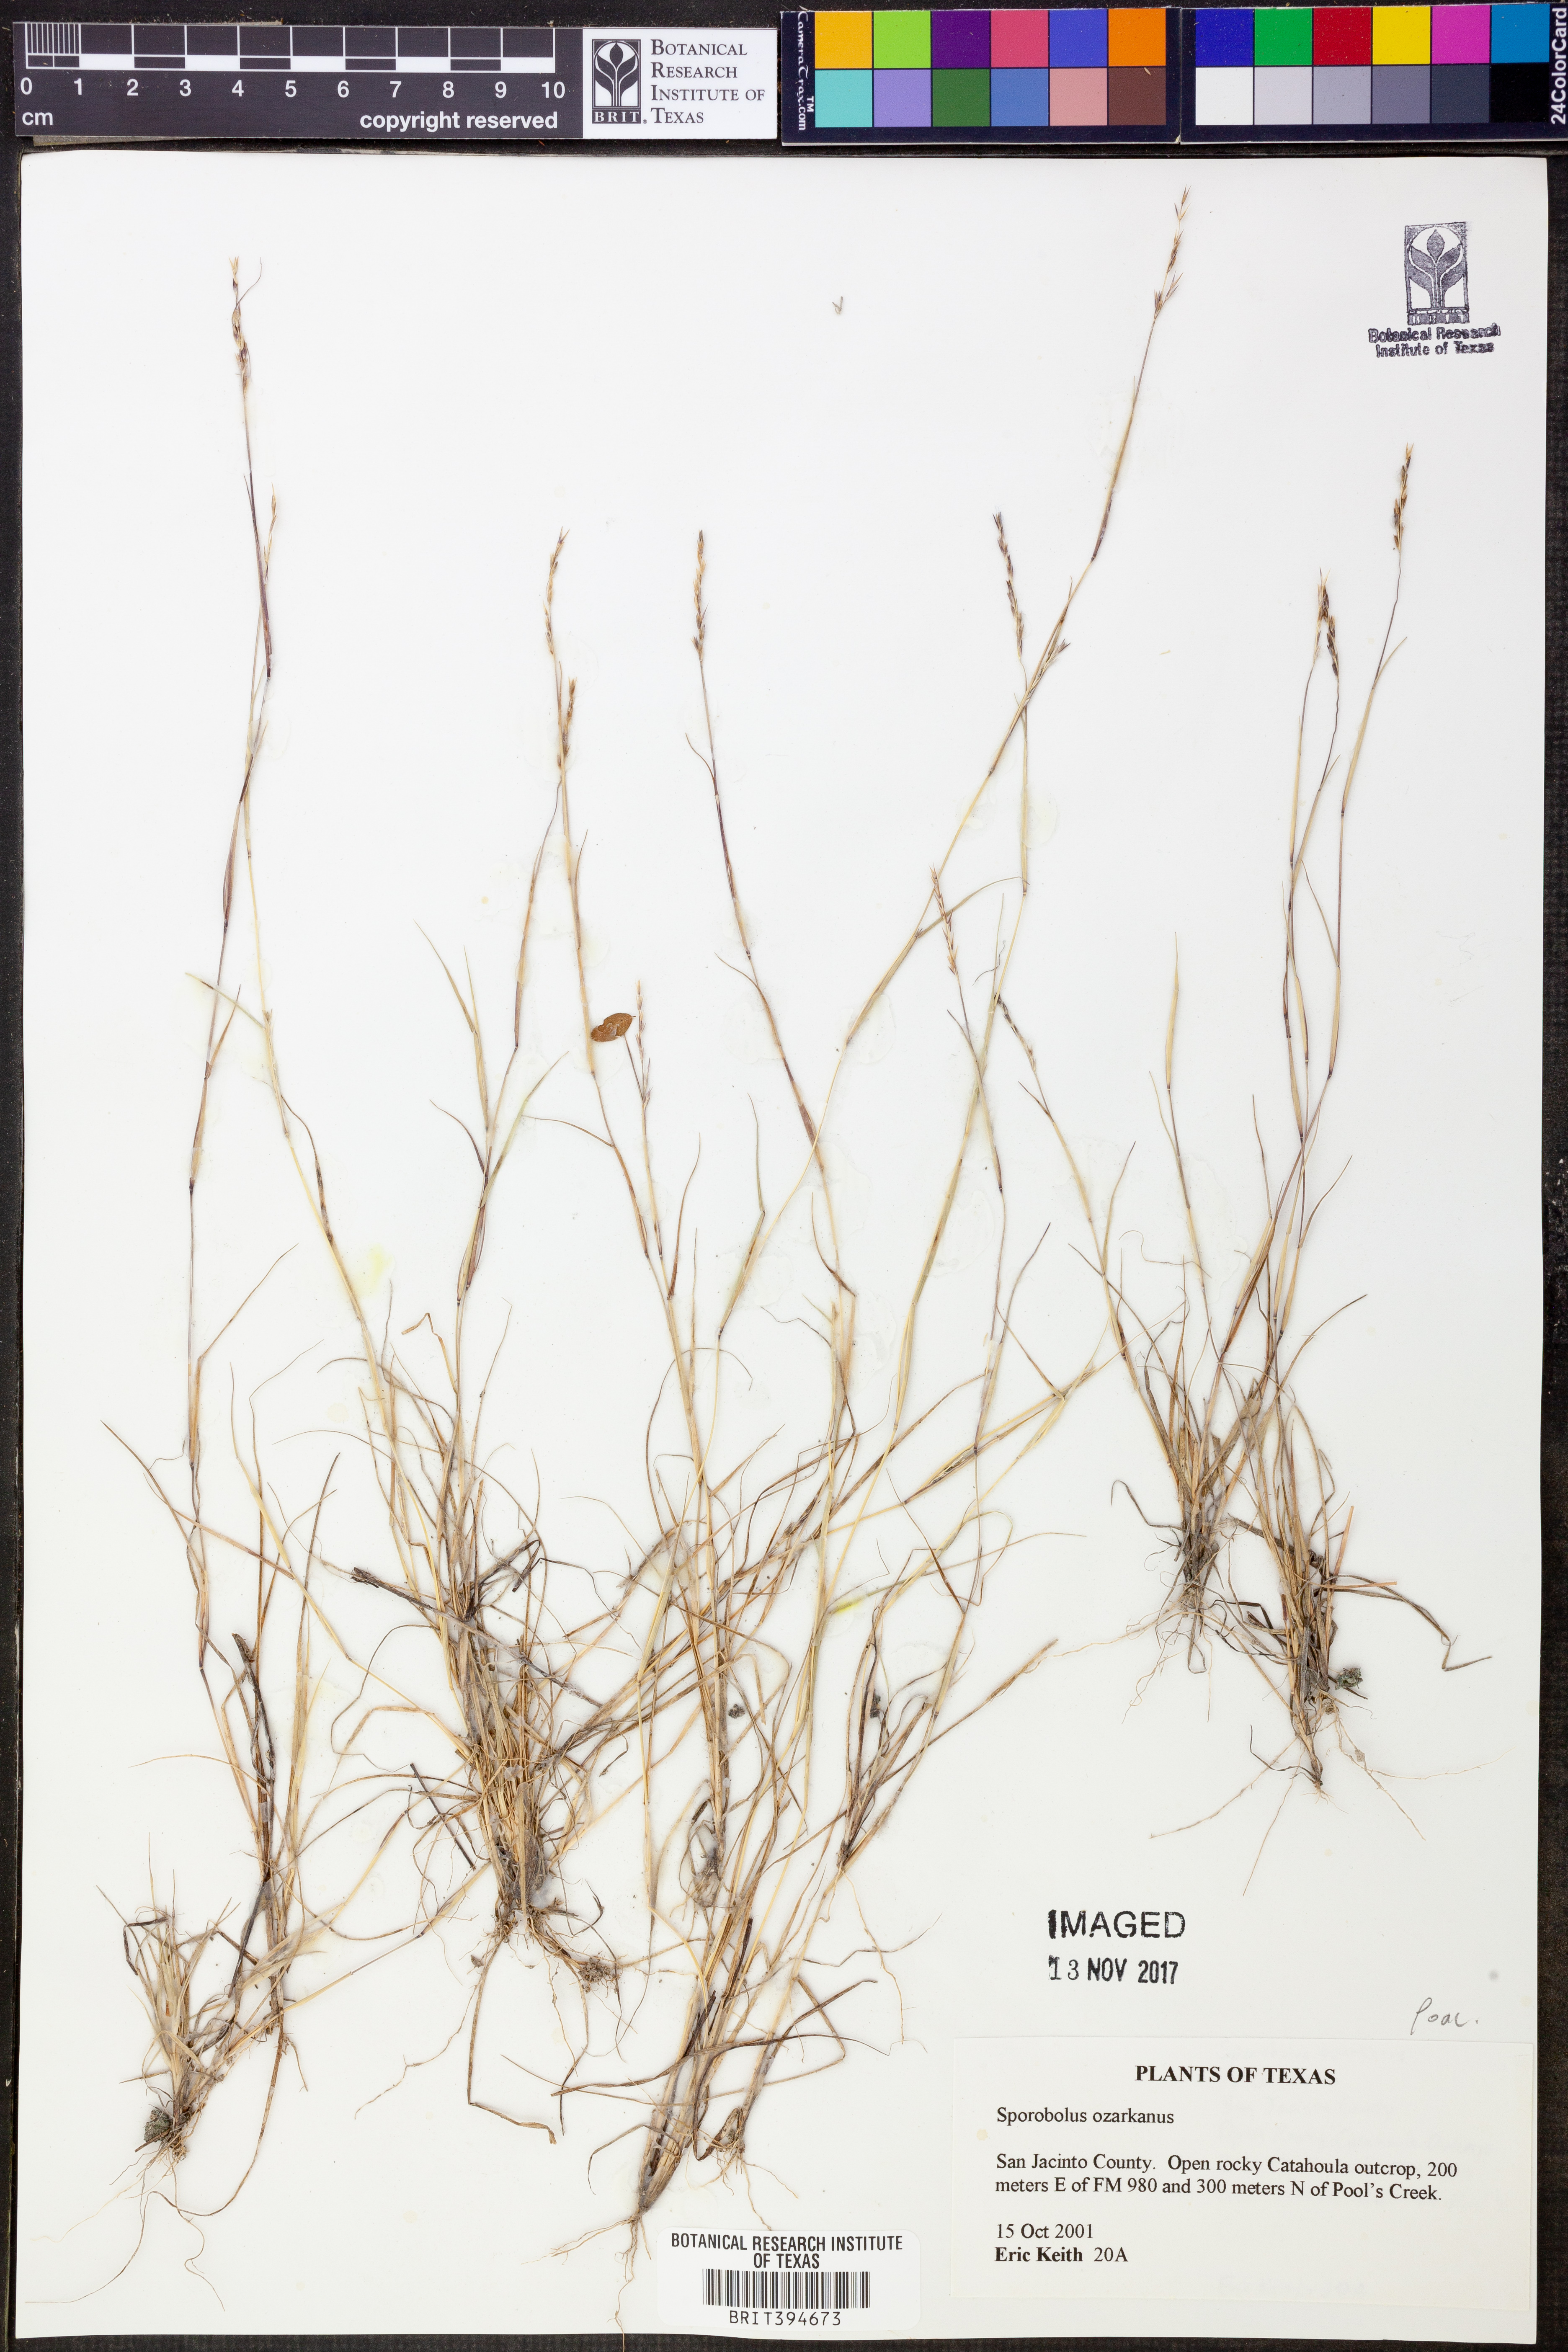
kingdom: Plantae
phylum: Tracheophyta
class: Liliopsida
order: Poales
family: Poaceae
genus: Sporobolus
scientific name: Sporobolus neglectus
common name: Annual dropseed
